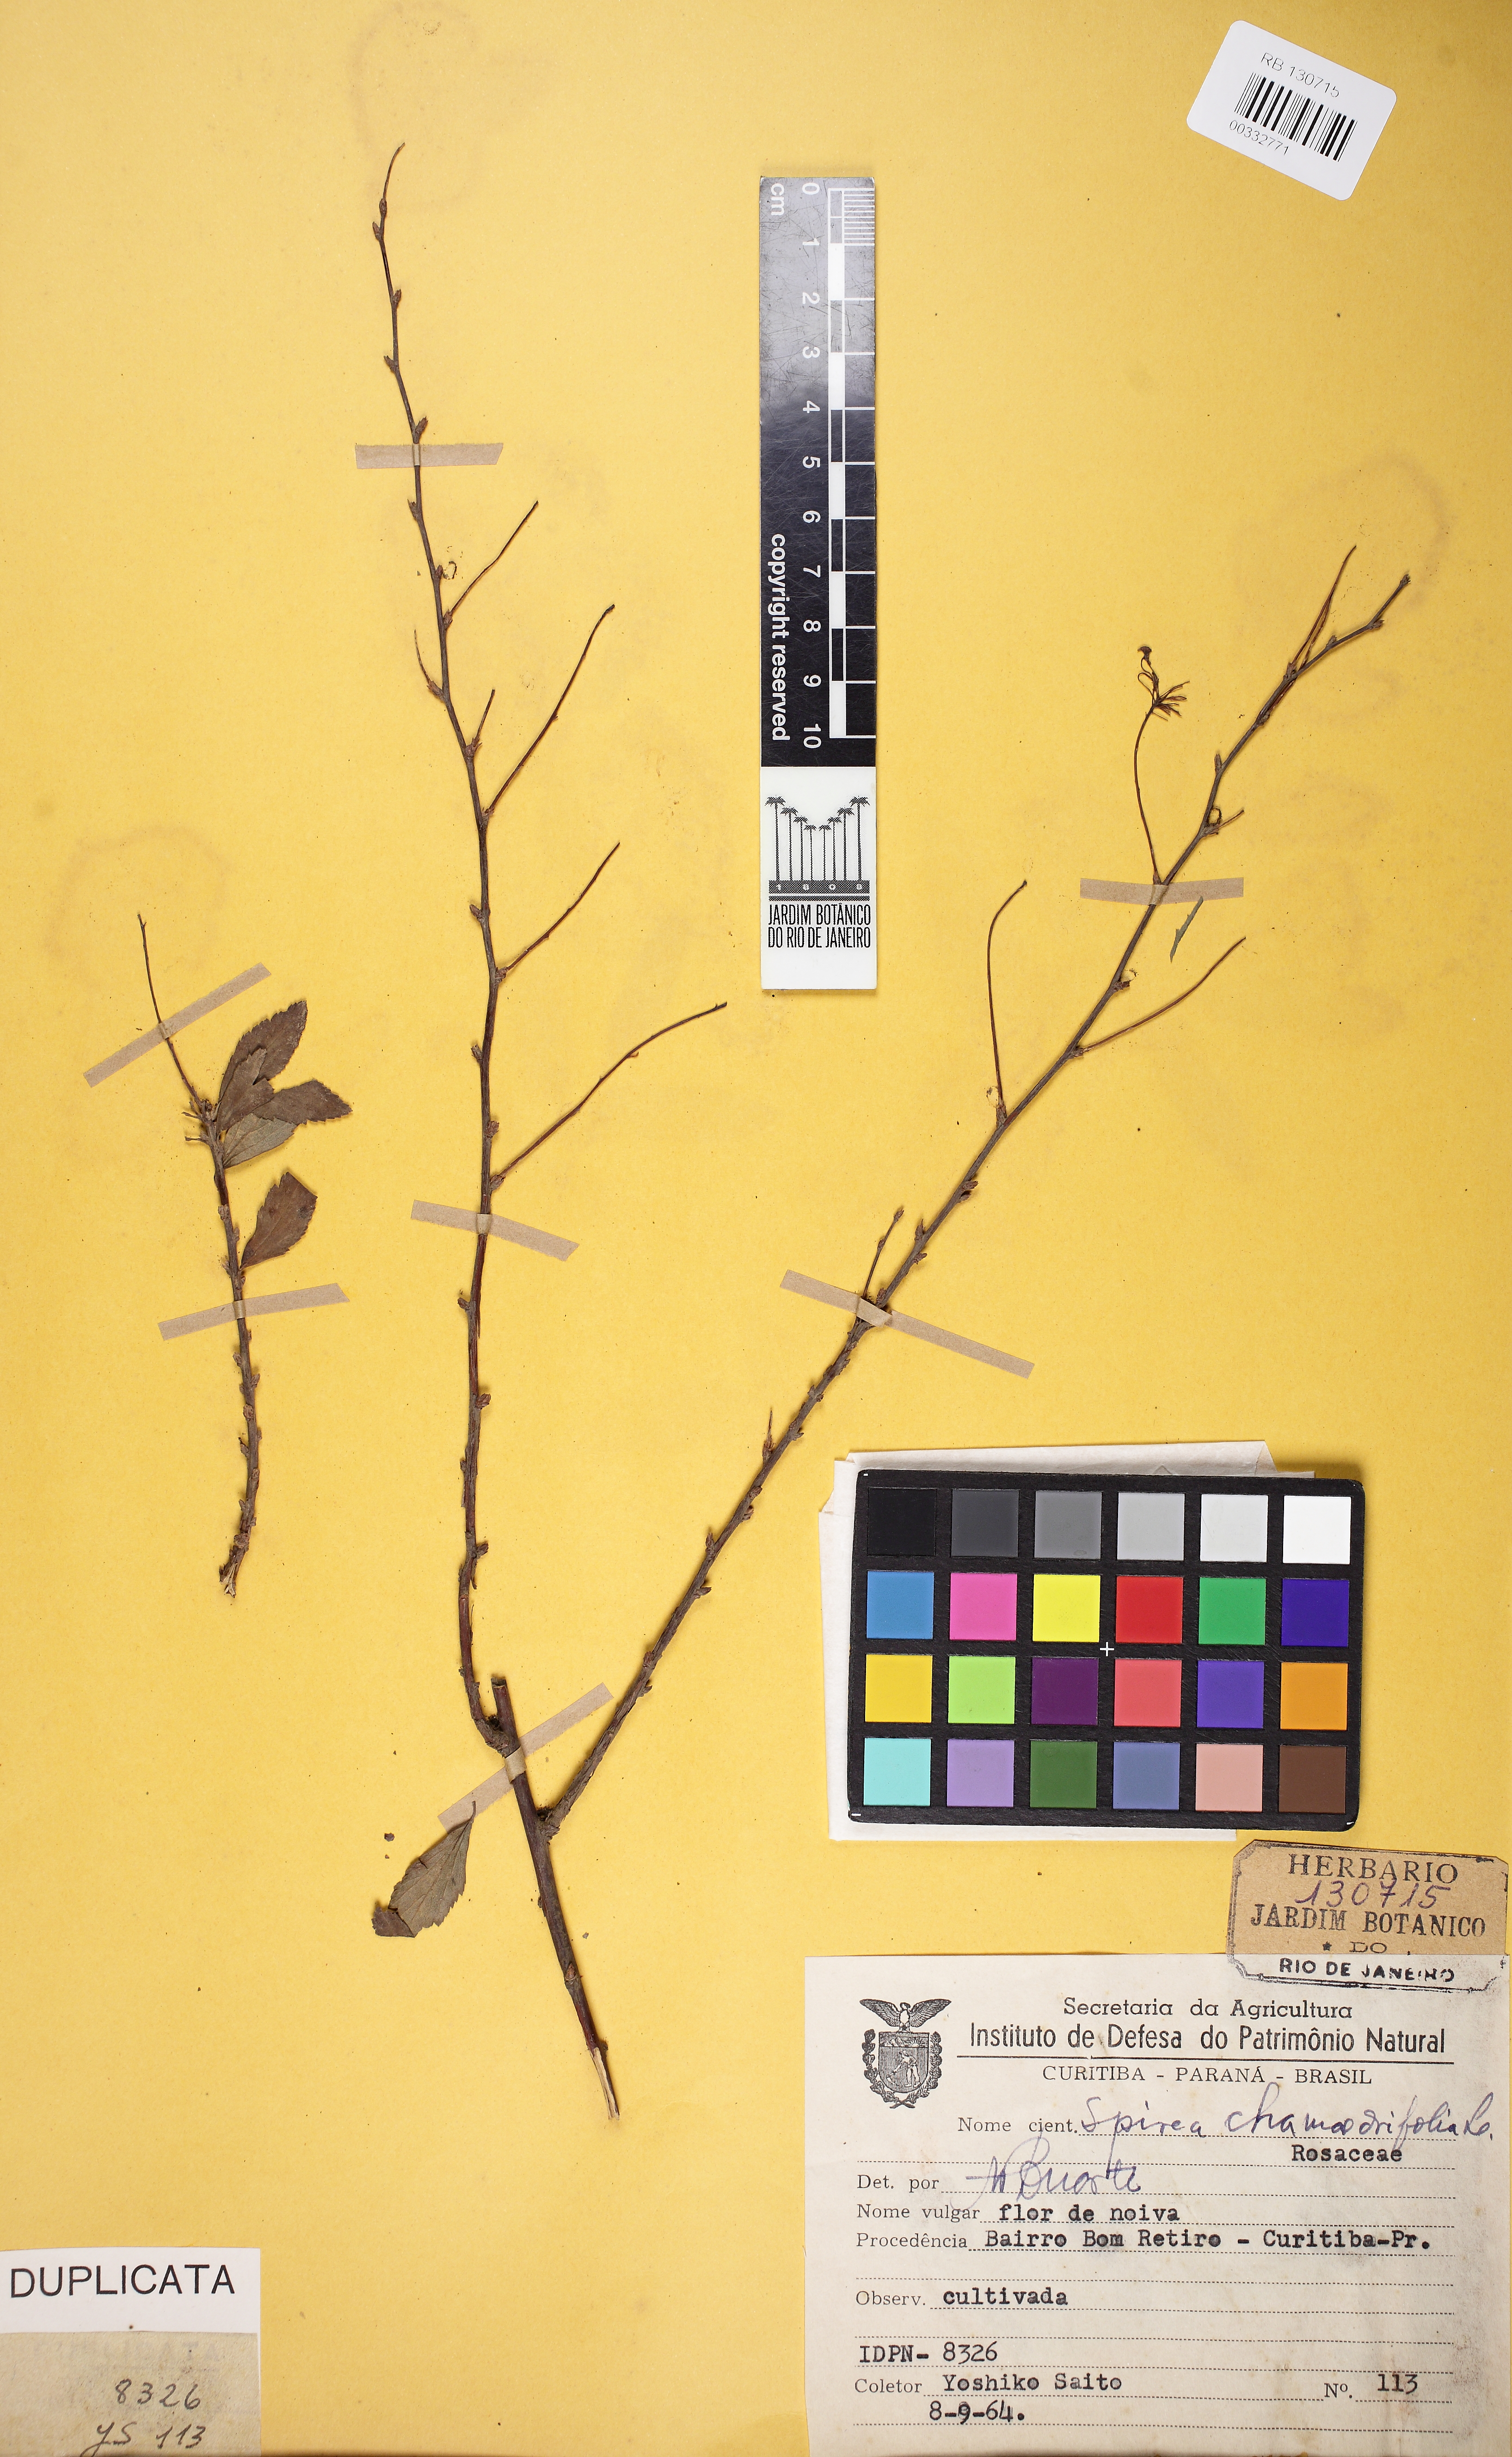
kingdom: Plantae
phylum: Tracheophyta
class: Magnoliopsida
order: Rosales
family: Rosaceae
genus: Spiraea
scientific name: Spiraea chamaedryfolia
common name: Elm-leaved spiraea
